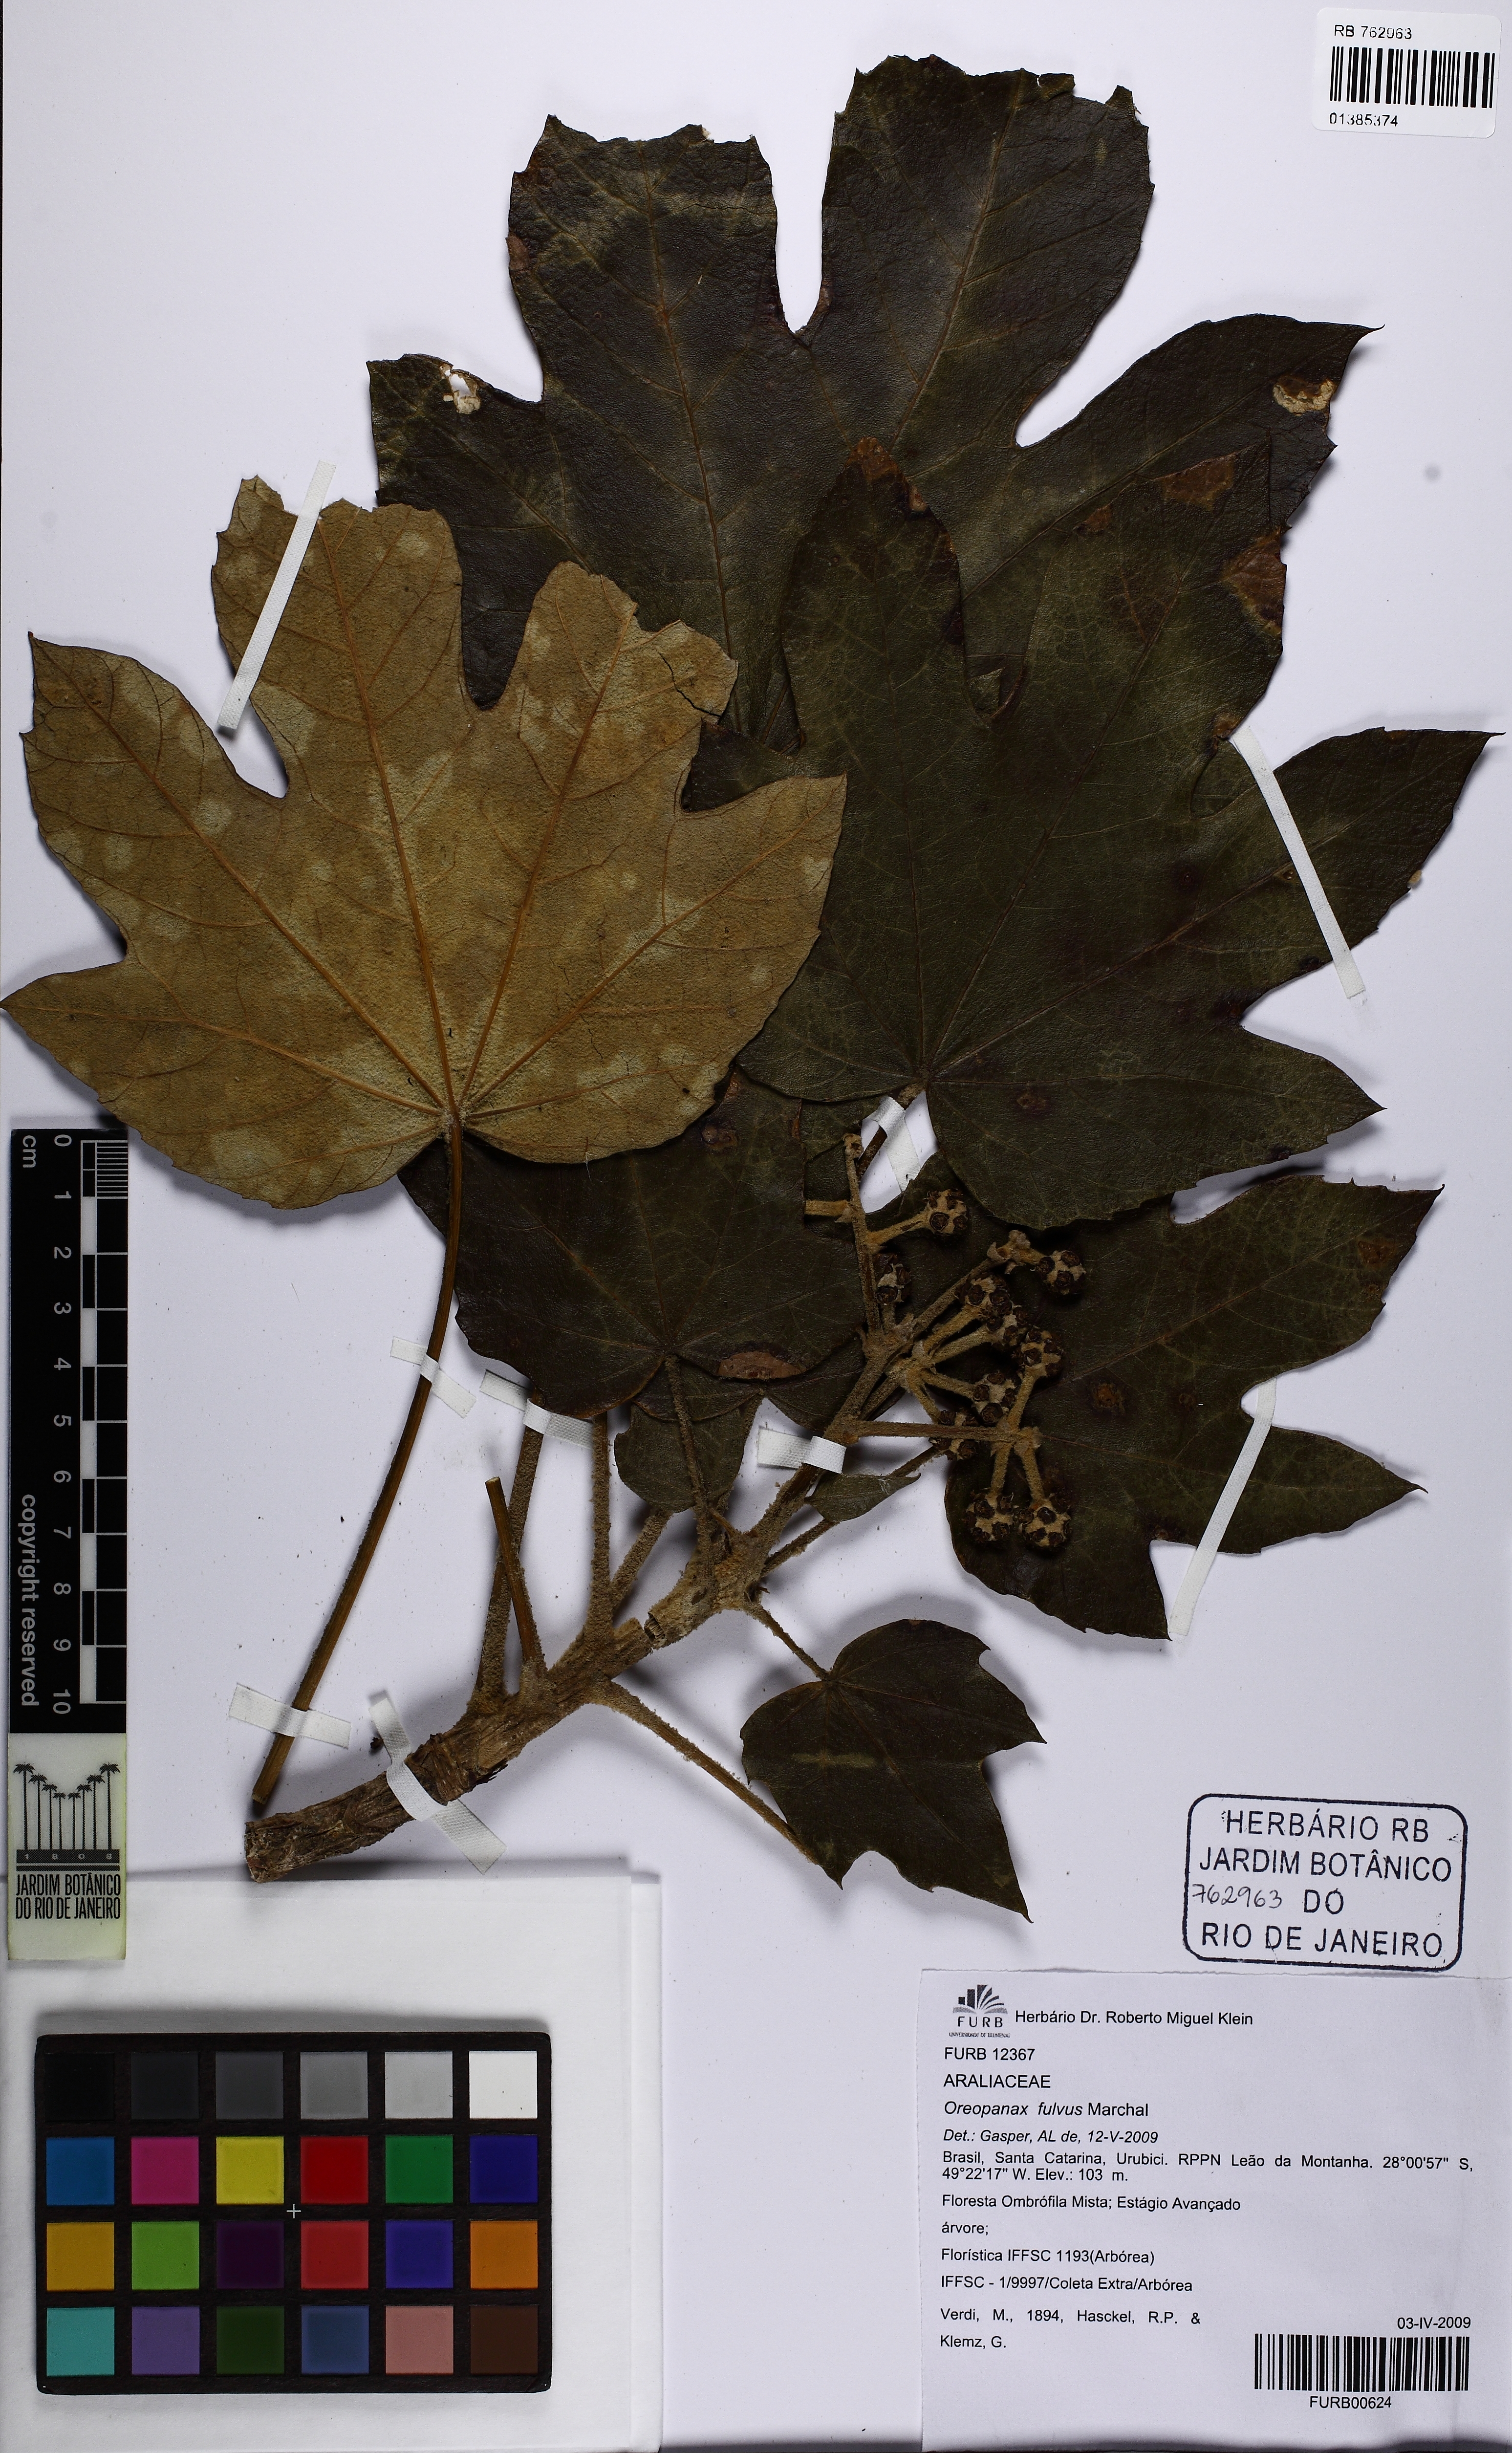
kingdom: Plantae
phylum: Tracheophyta
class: Magnoliopsida
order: Apiales
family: Araliaceae
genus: Oreopanax
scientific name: Oreopanax fulvus
